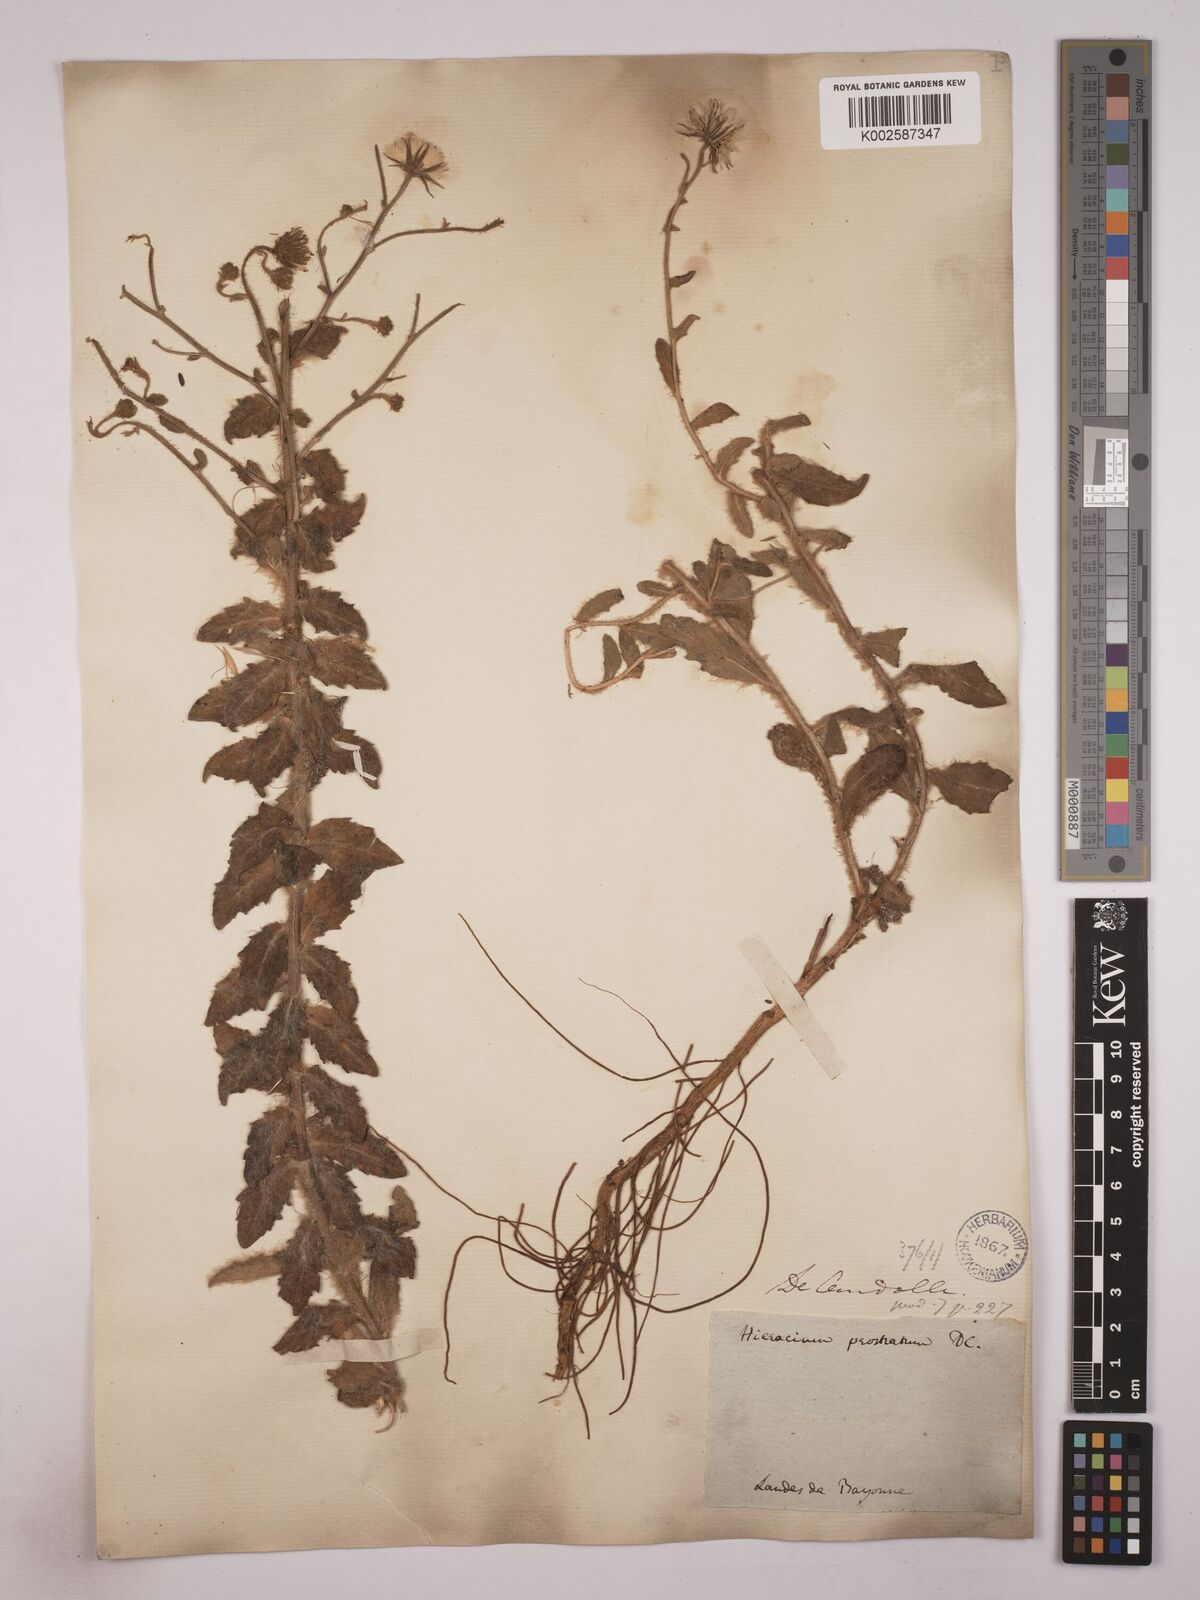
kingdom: Plantae
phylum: Tracheophyta
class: Magnoliopsida
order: Asterales
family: Asteraceae
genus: Hieracium
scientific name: Hieracium prostratum
